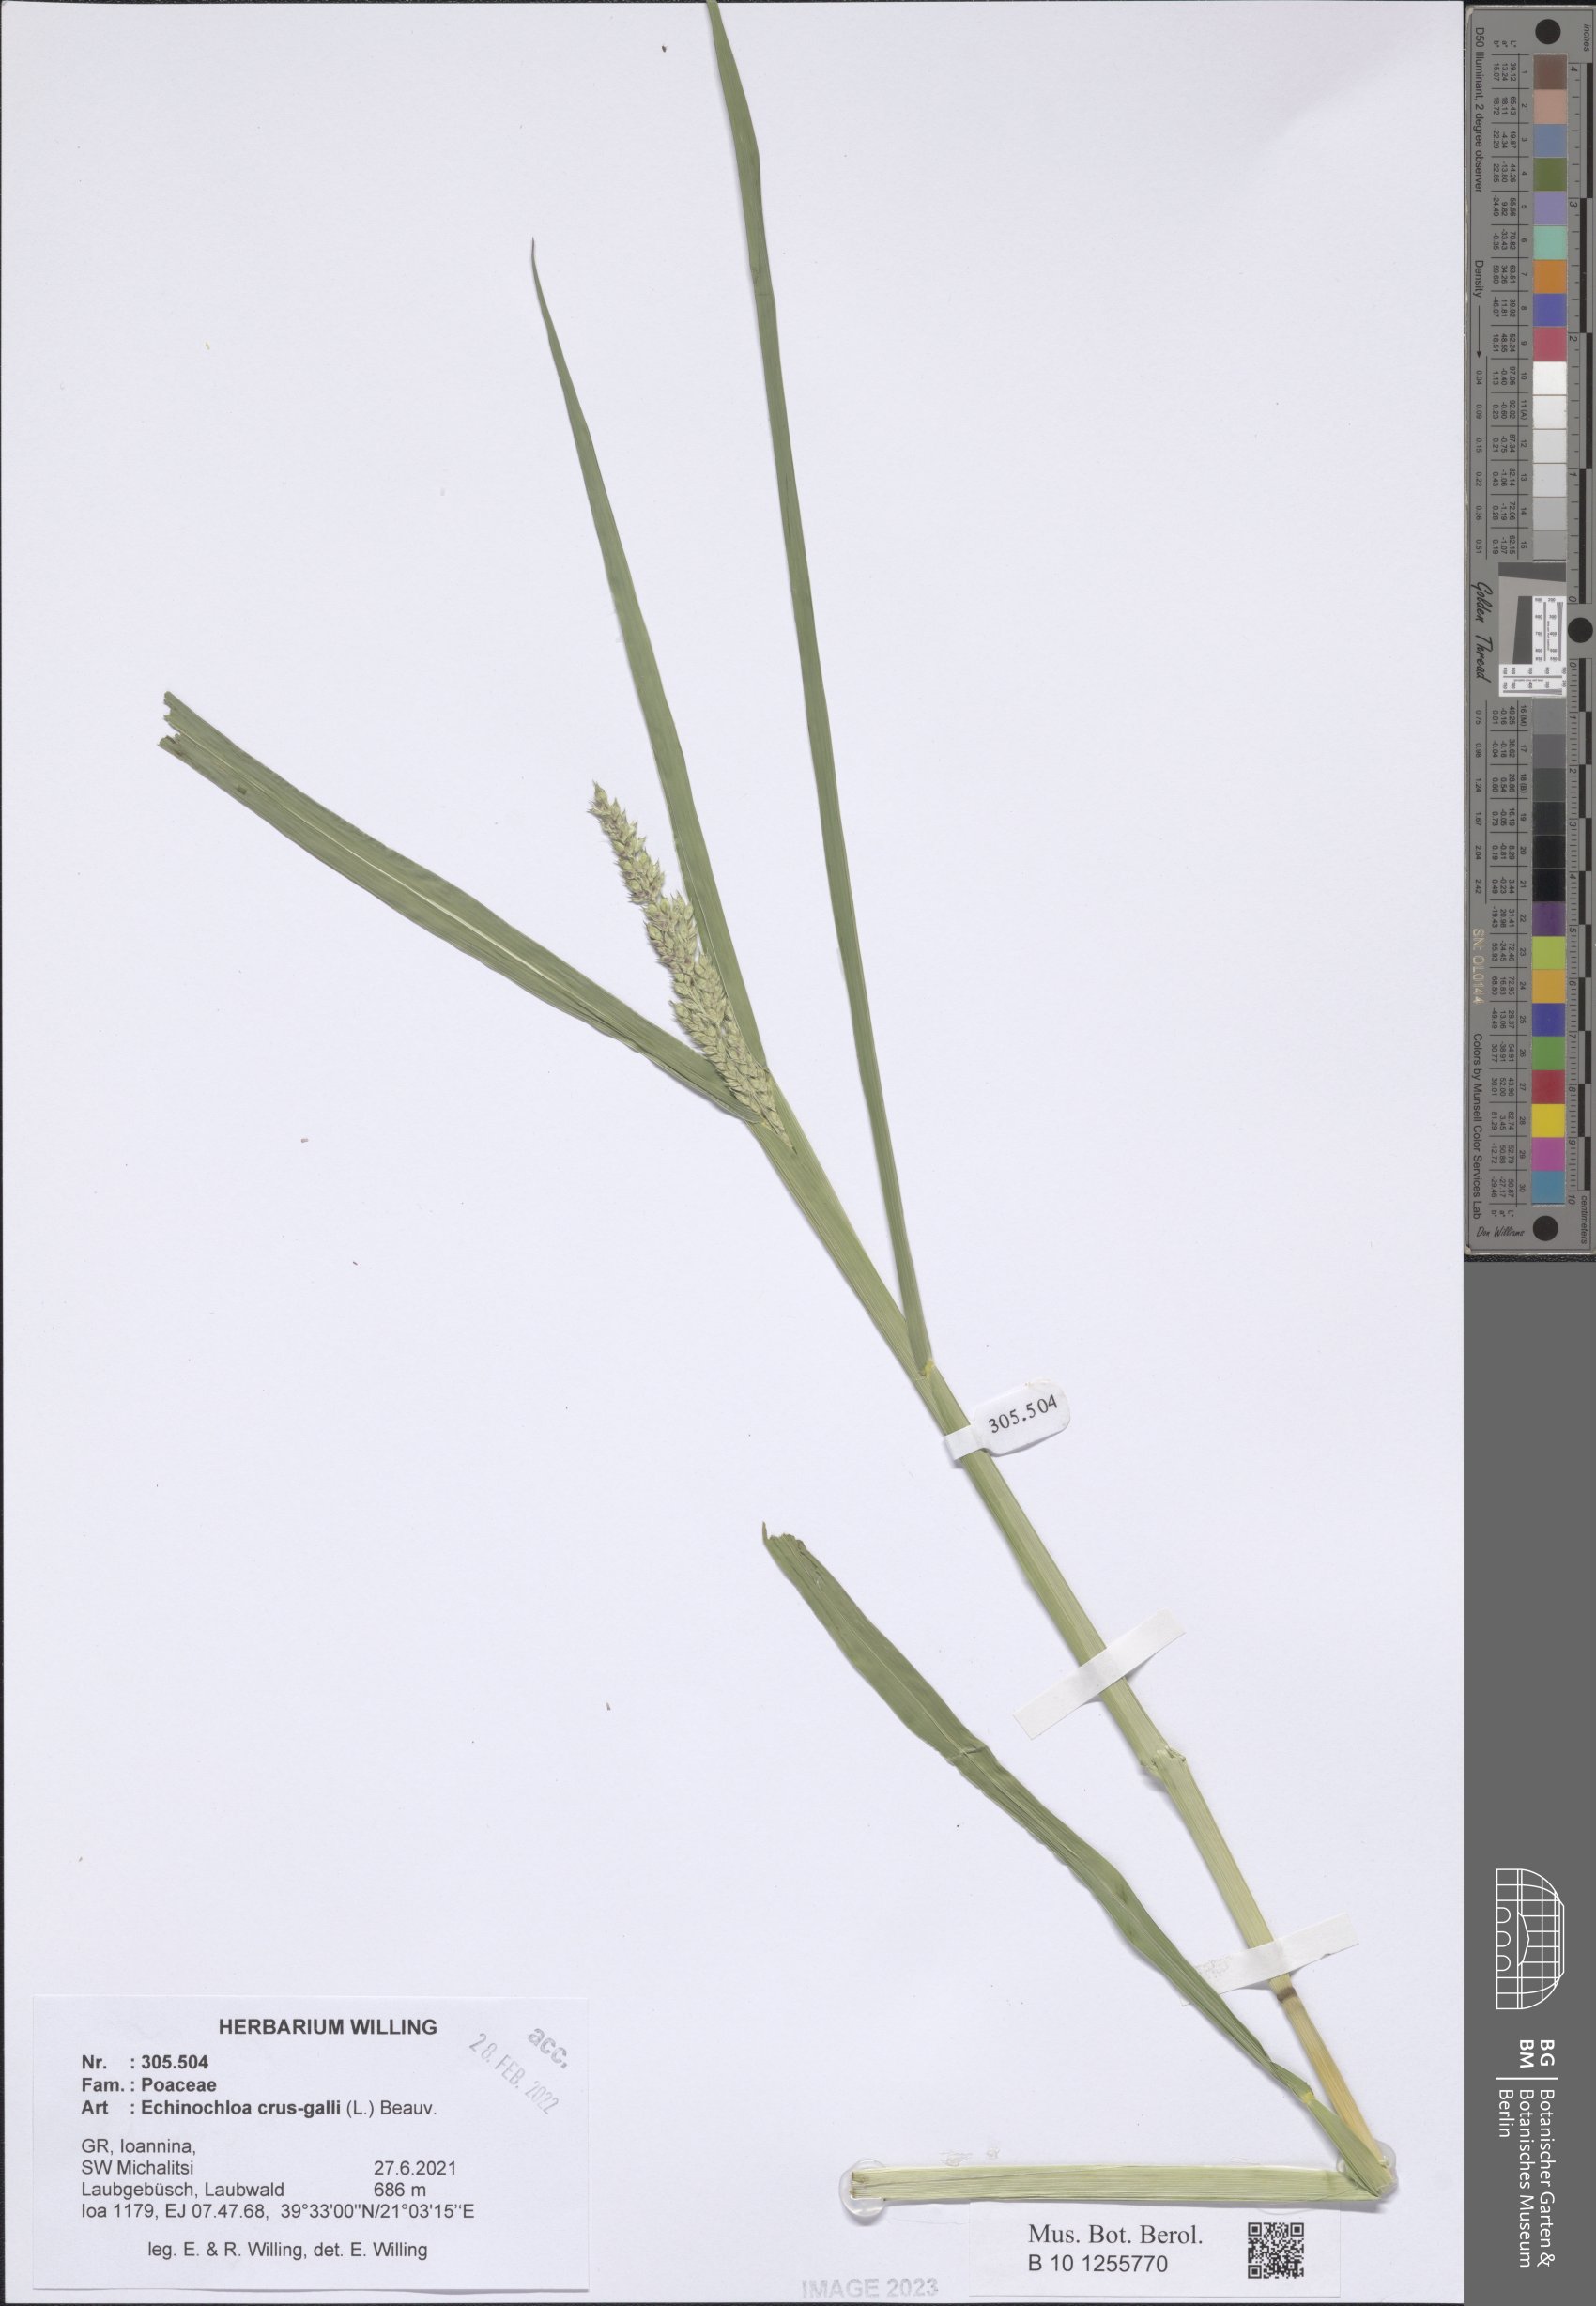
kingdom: Plantae
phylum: Tracheophyta
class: Liliopsida
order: Poales
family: Poaceae
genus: Echinochloa
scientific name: Echinochloa crus-galli
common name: Cockspur
